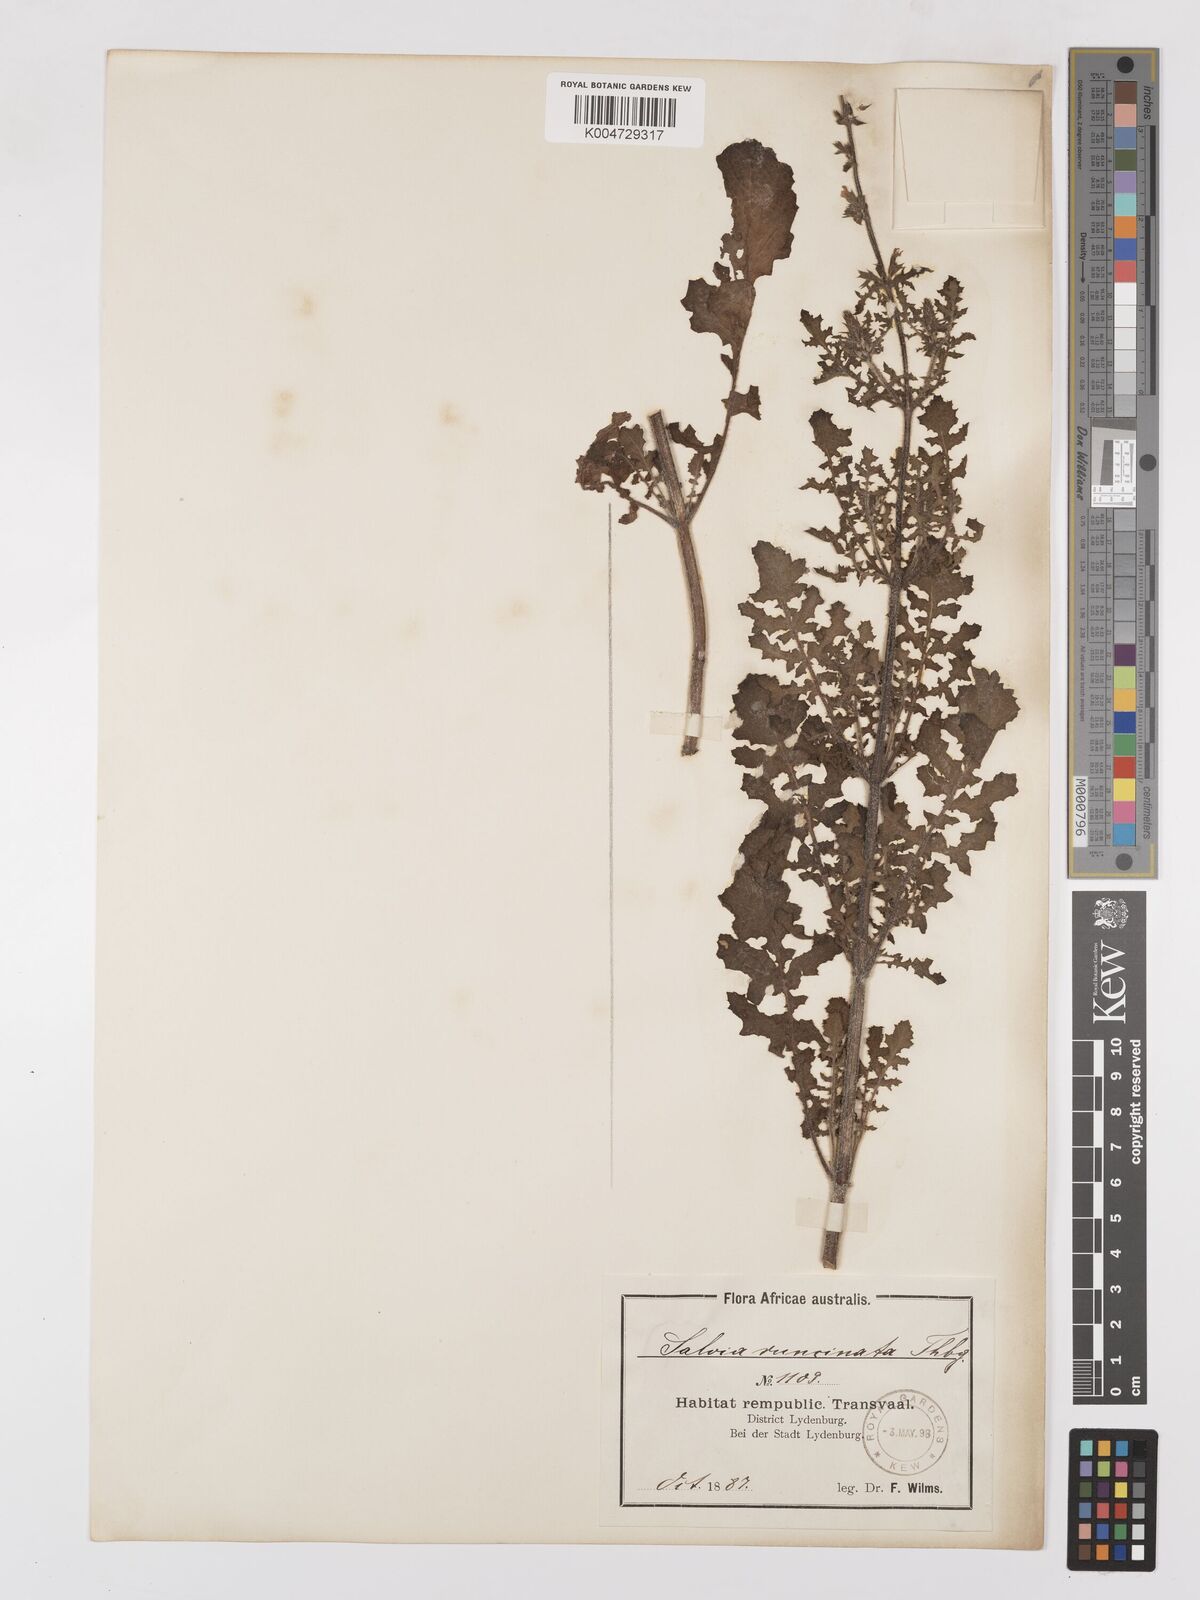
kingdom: Plantae
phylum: Tracheophyta
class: Magnoliopsida
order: Lamiales
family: Lamiaceae
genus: Salvia
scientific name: Salvia runcinata
